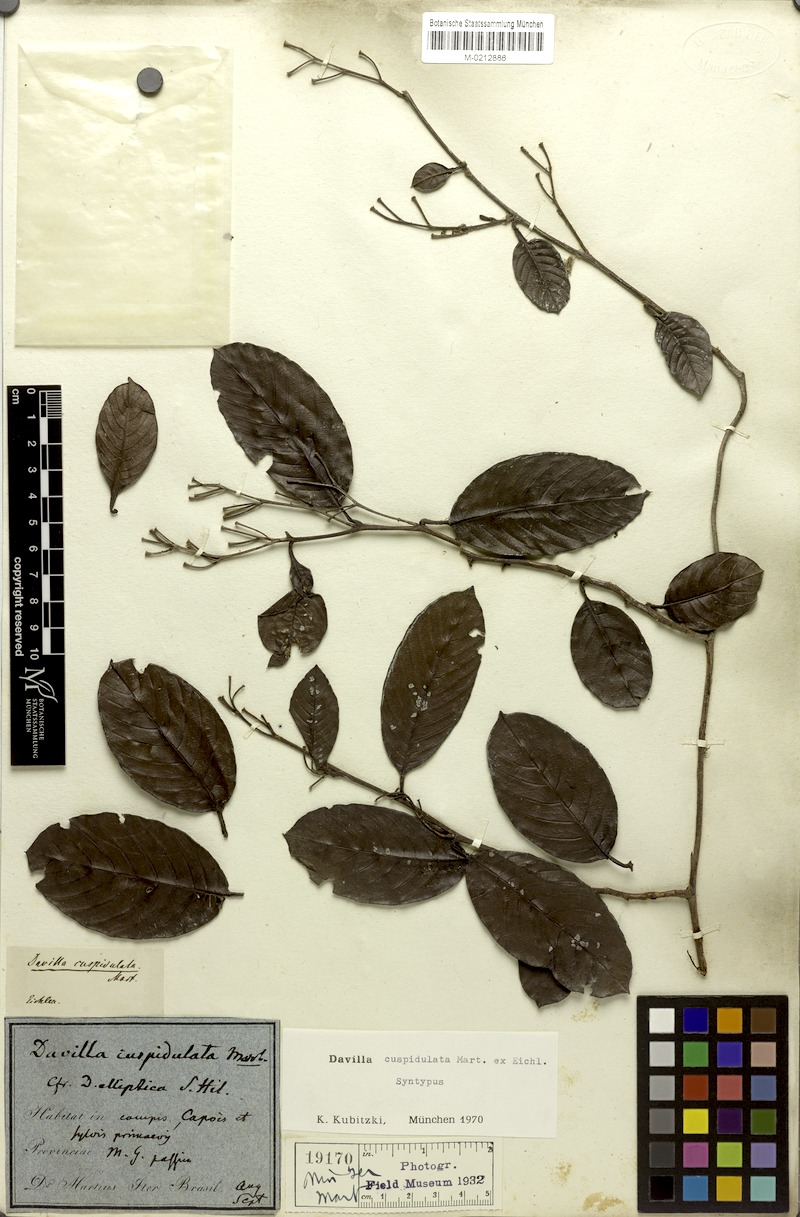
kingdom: Plantae
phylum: Tracheophyta
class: Magnoliopsida
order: Dilleniales
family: Dilleniaceae
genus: Davilla
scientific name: Davilla cuspidulata
